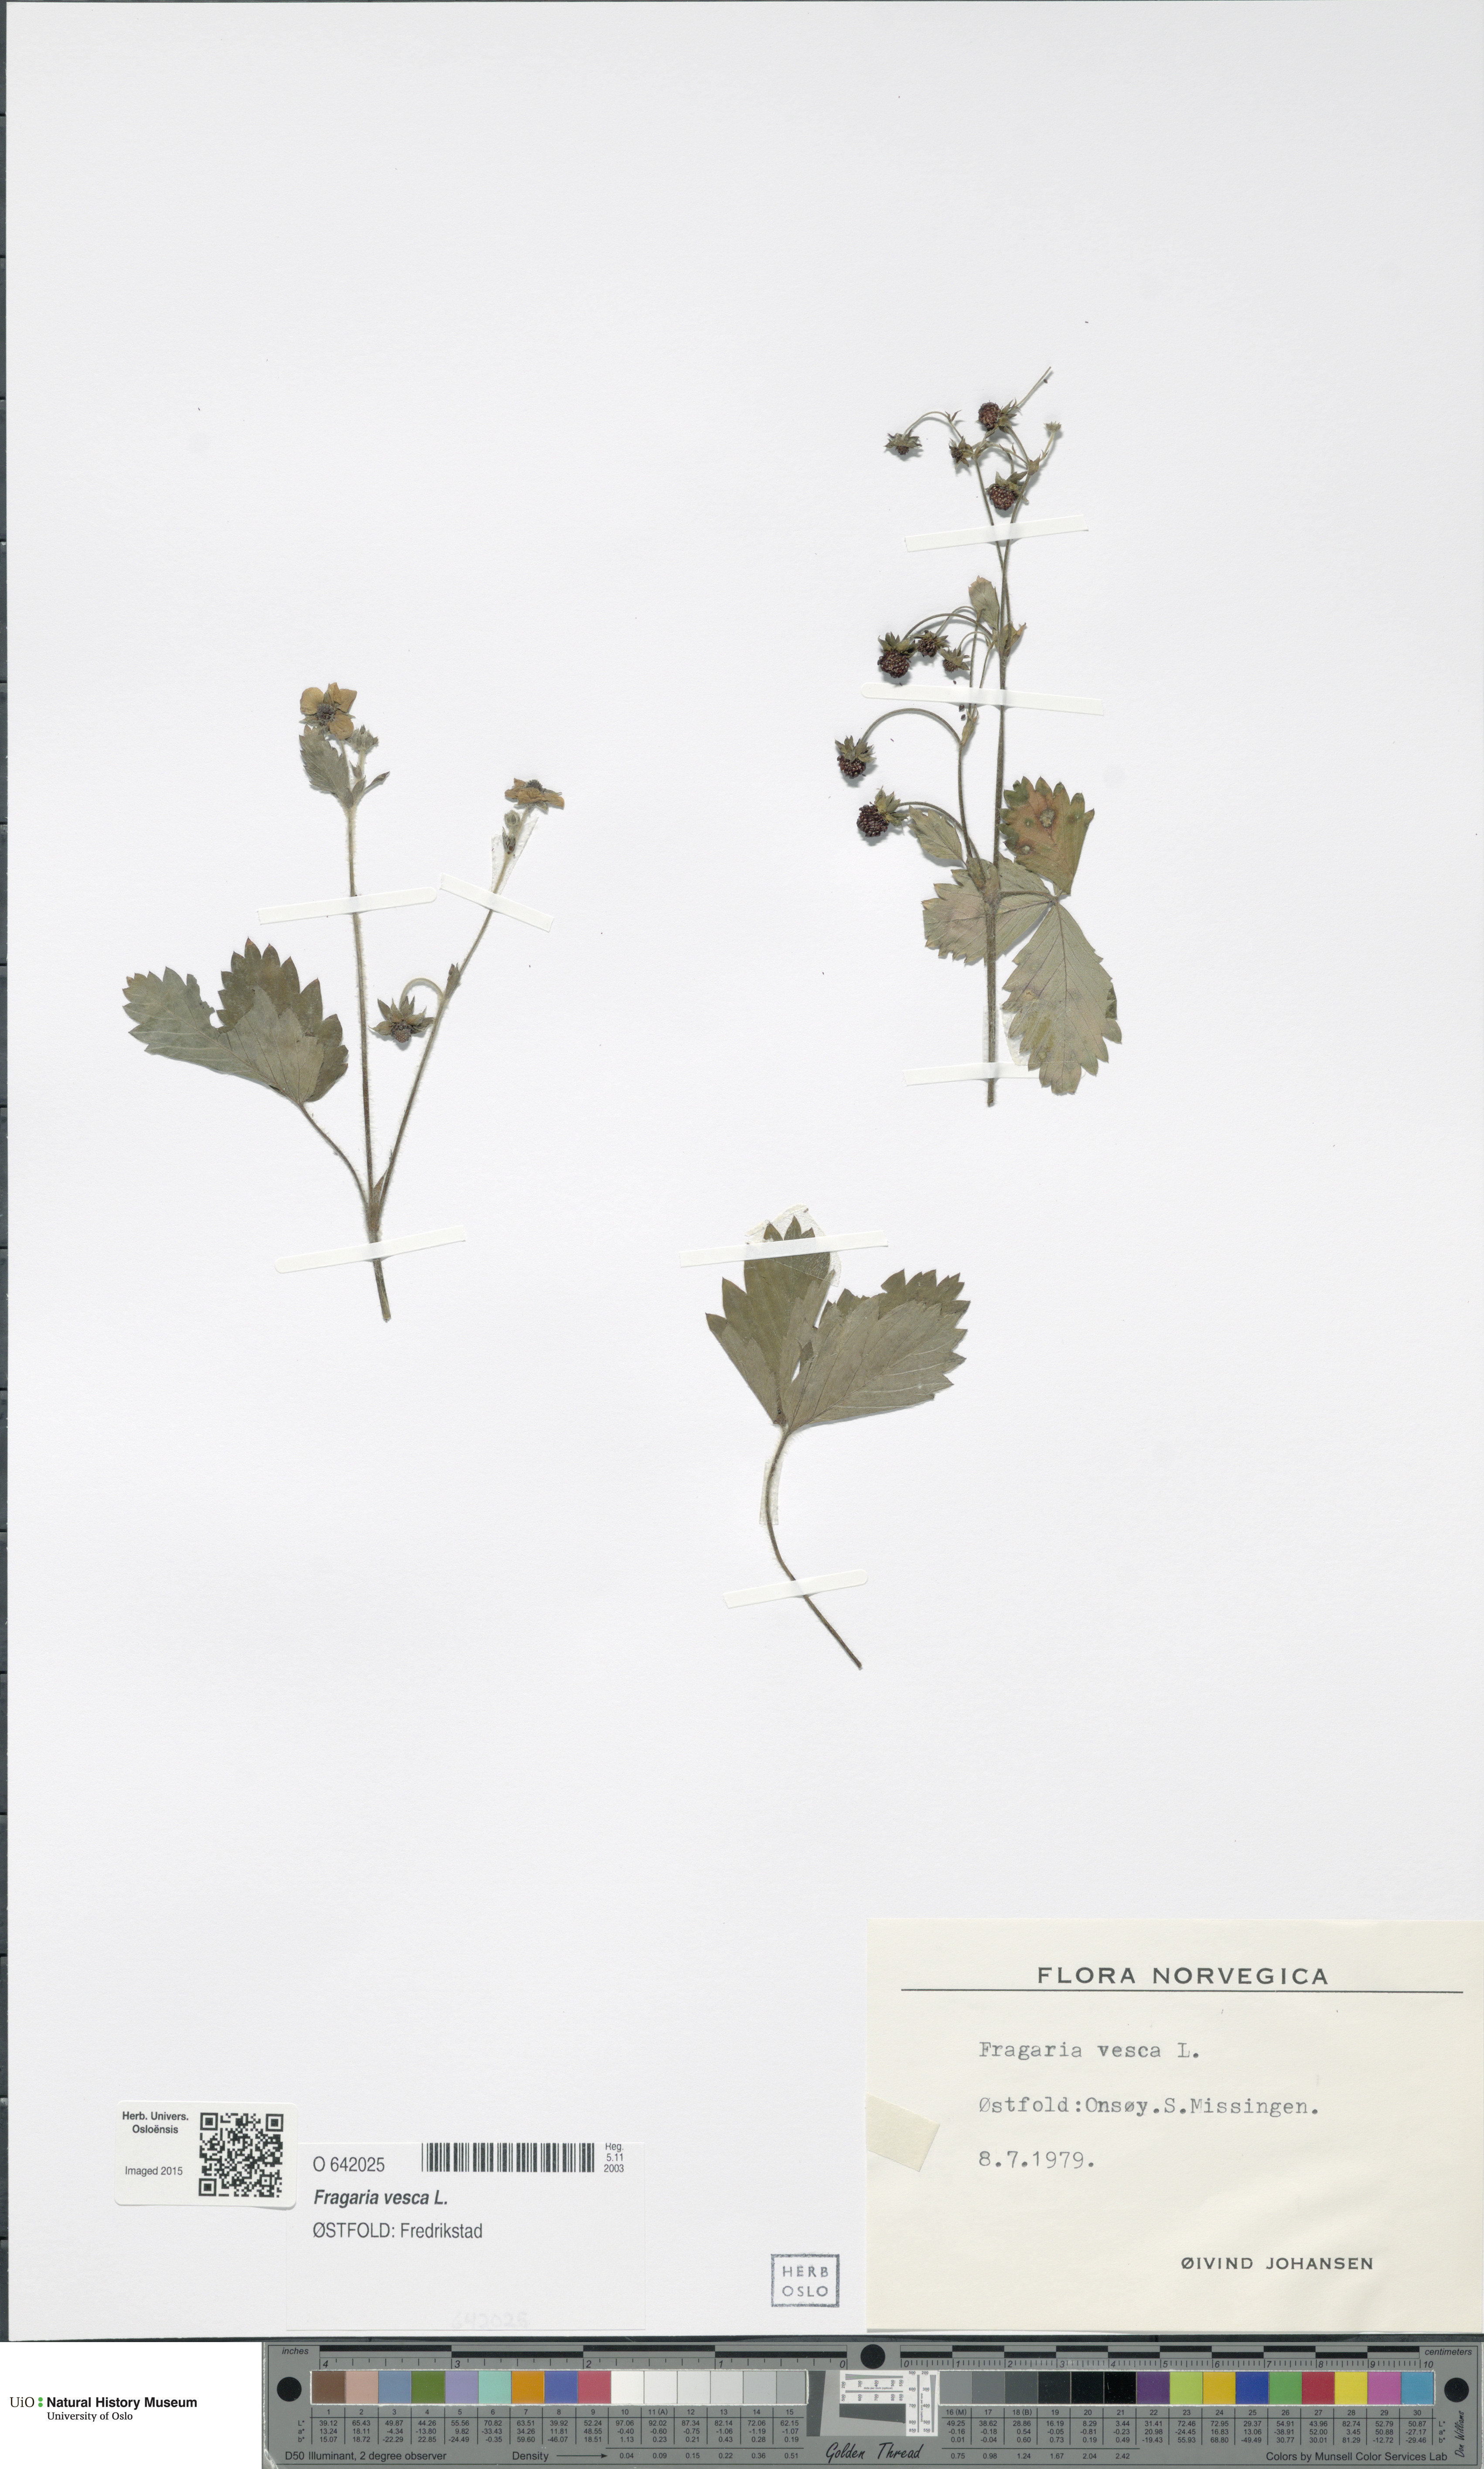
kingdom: Plantae
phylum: Tracheophyta
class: Magnoliopsida
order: Rosales
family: Rosaceae
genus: Fragaria
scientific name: Fragaria vesca
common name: Wild strawberry
